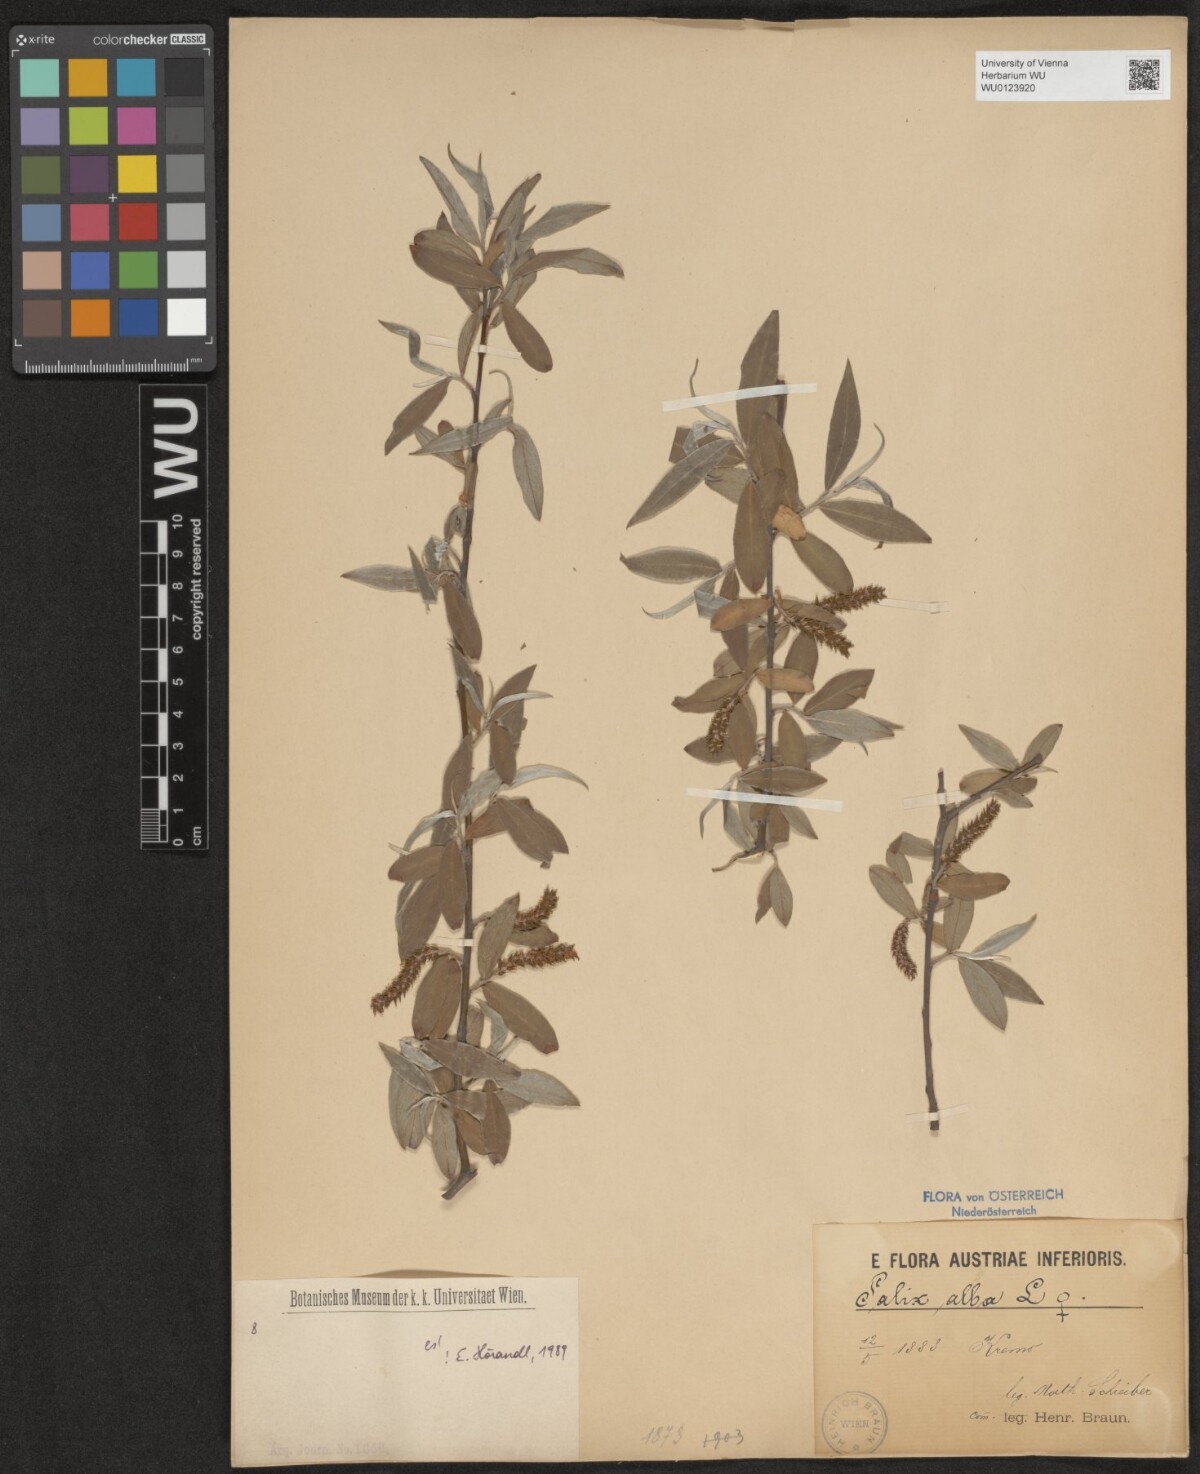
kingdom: Plantae
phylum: Tracheophyta
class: Magnoliopsida
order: Malpighiales
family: Salicaceae
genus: Salix
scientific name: Salix alba
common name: White willow
